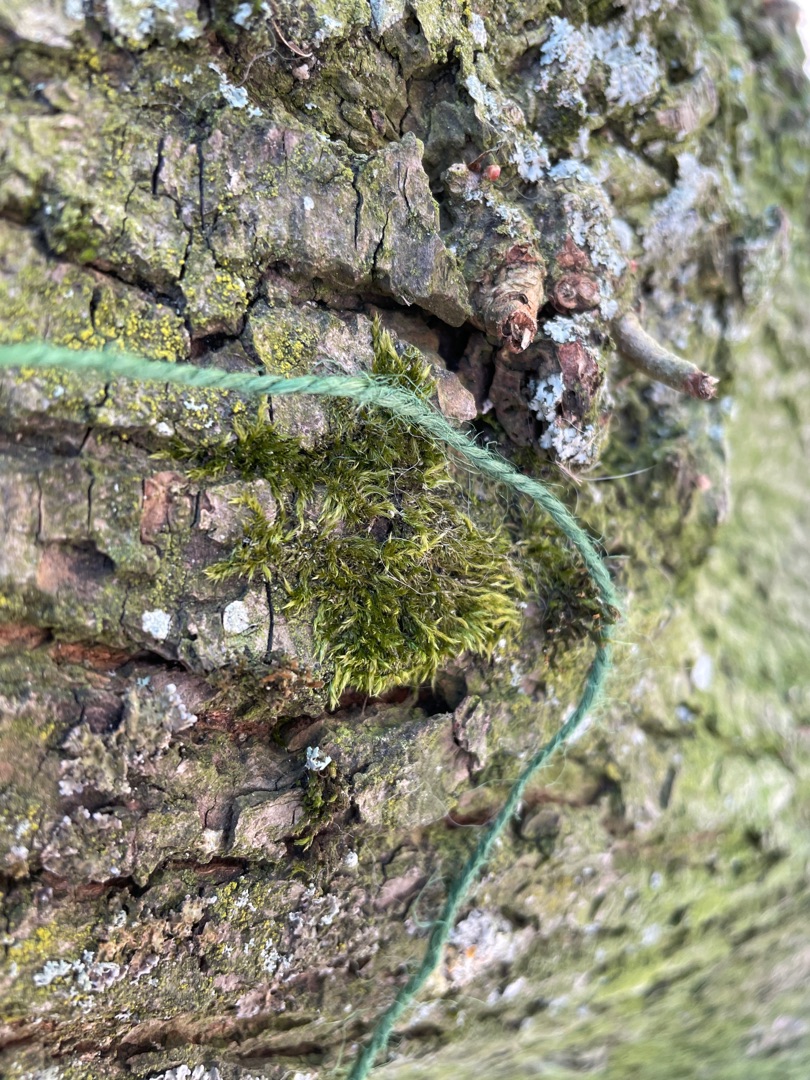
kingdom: Plantae
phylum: Bryophyta
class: Bryopsida
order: Hypnales
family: Hypnaceae
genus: Hypnum
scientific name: Hypnum
